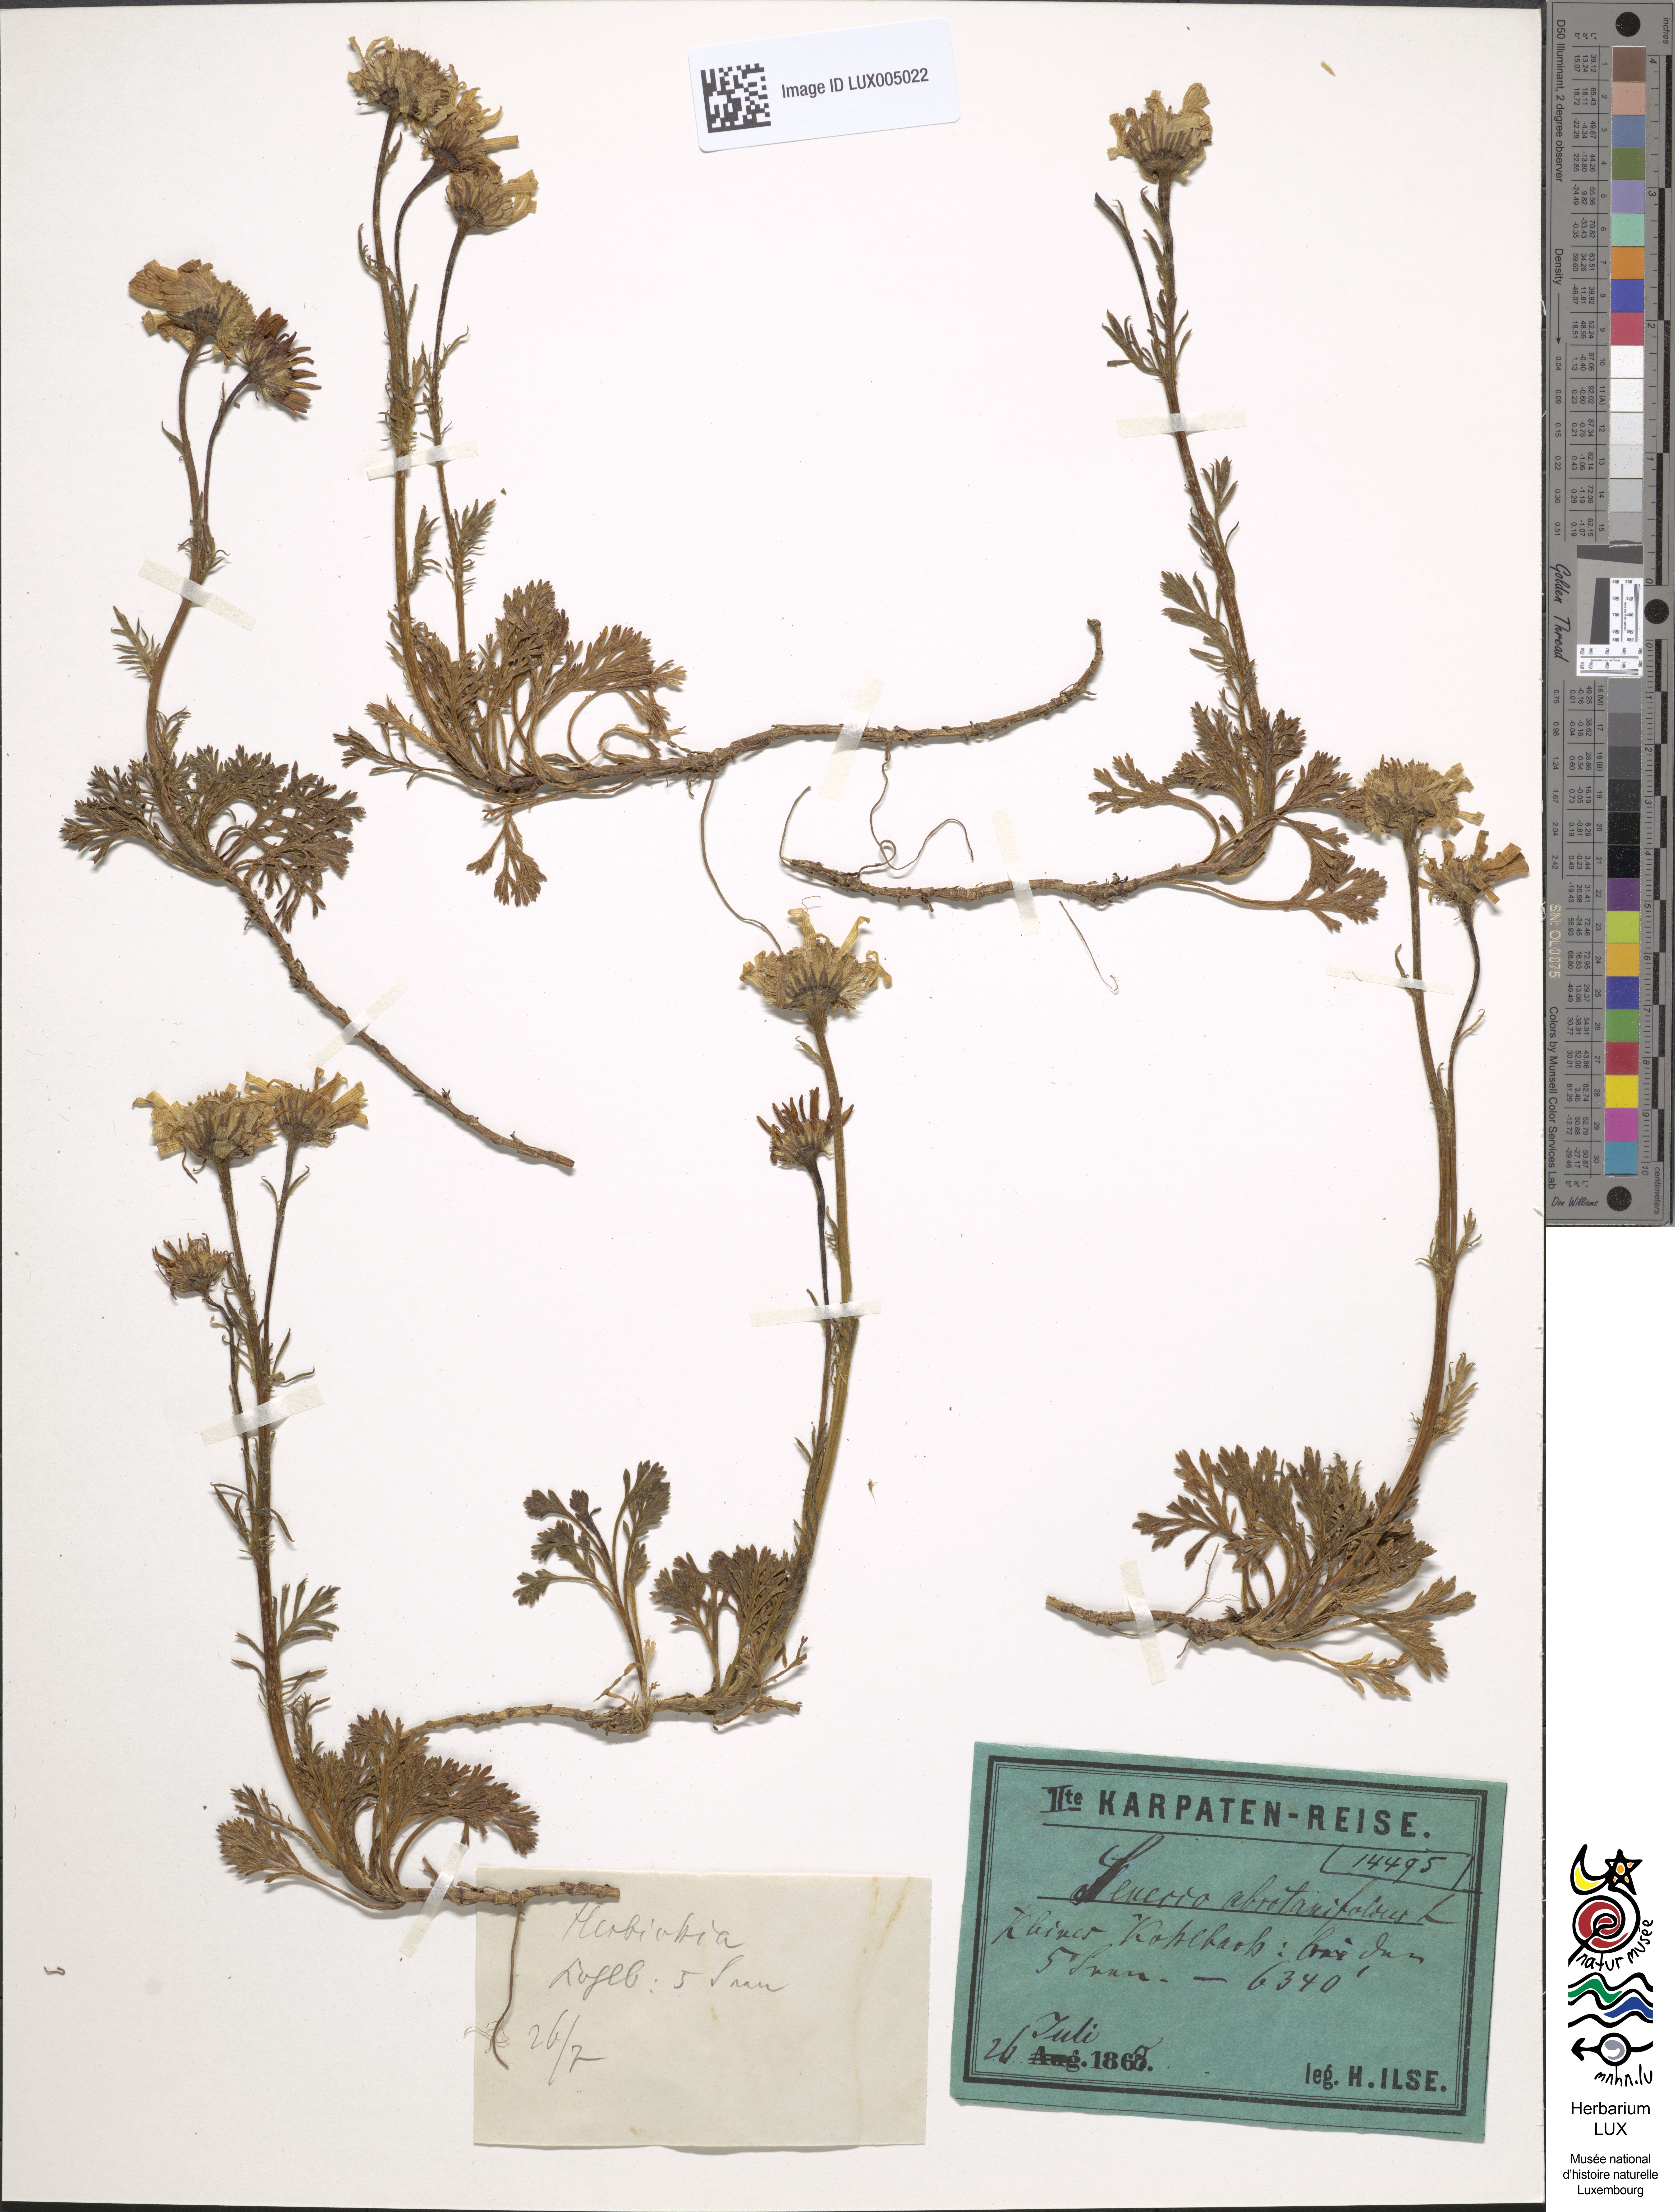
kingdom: Plantae
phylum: Tracheophyta
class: Magnoliopsida
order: Asterales
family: Asteraceae
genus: Jacobaea
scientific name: Jacobaea abrotanifolia
